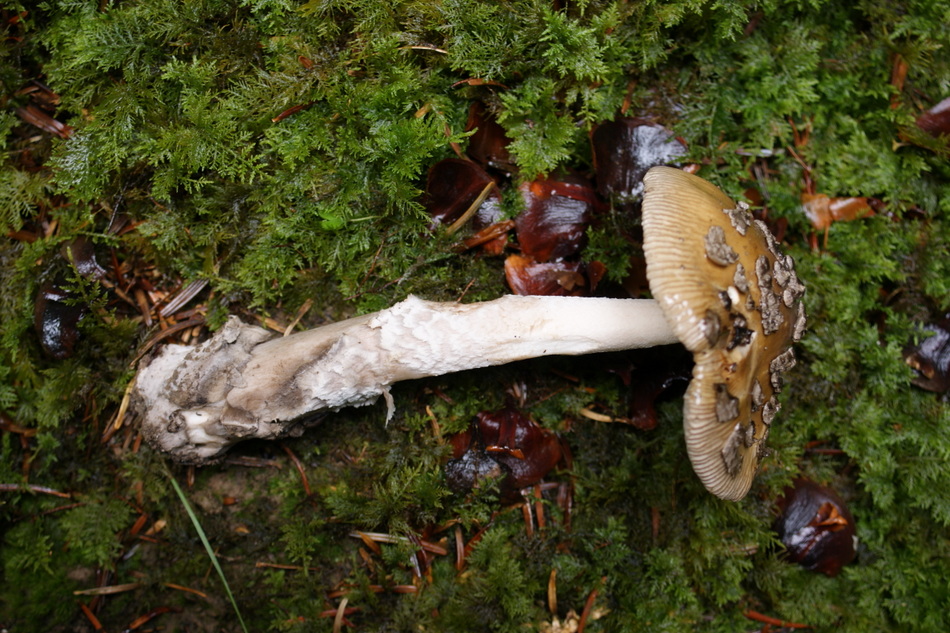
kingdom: Fungi
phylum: Basidiomycota
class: Agaricomycetes
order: Agaricales
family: Amanitaceae
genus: Amanita
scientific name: Amanita ceciliae
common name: stor kam-fluesvamp
